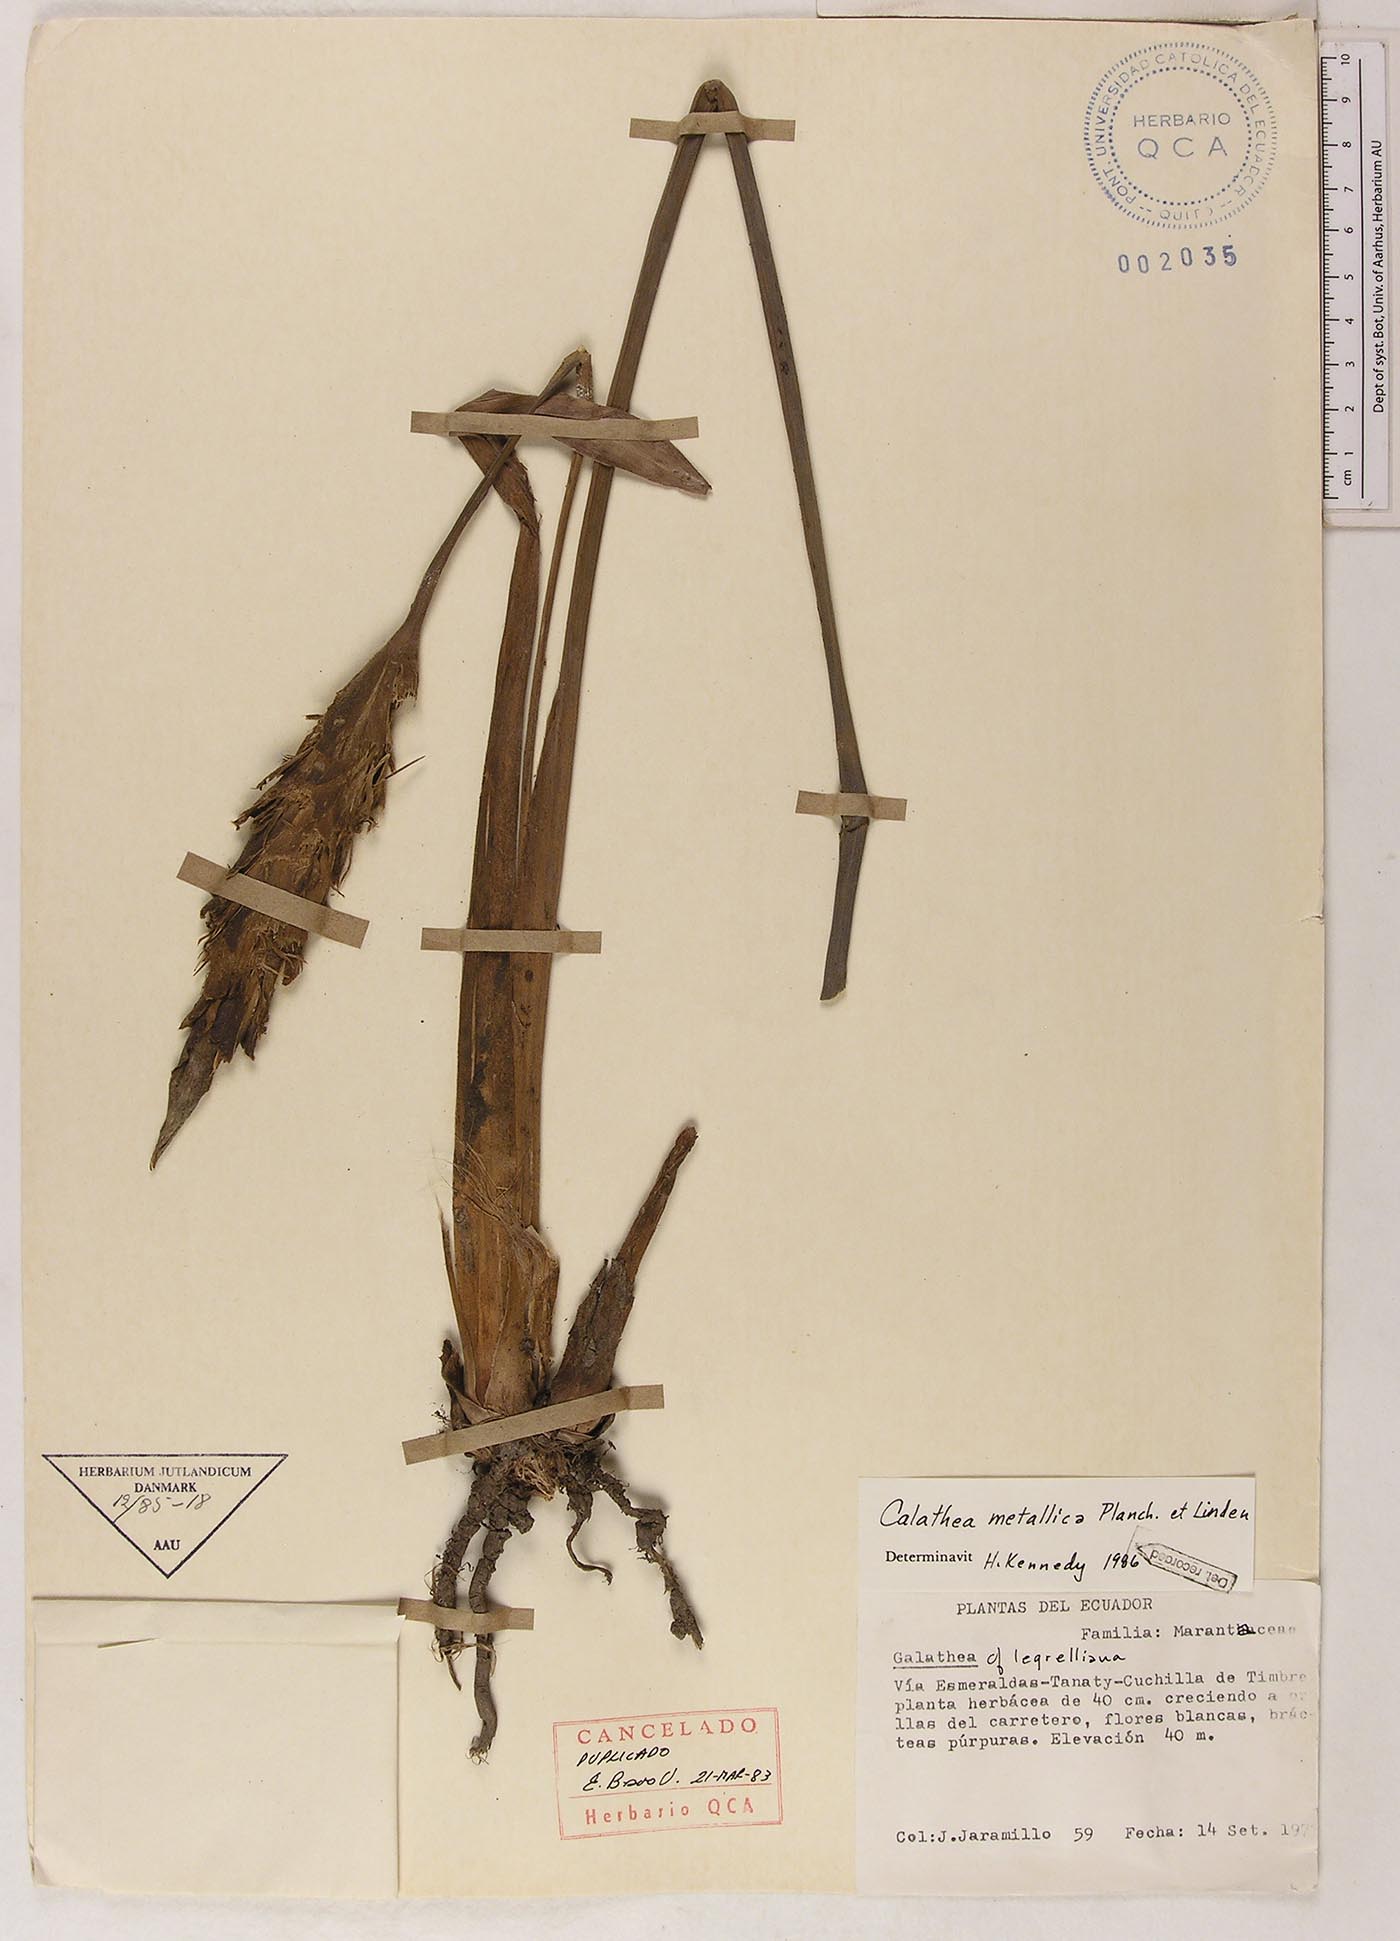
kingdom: Plantae
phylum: Tracheophyta
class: Liliopsida
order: Zingiberales
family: Marantaceae
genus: Goeppertia
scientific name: Goeppertia metallica
